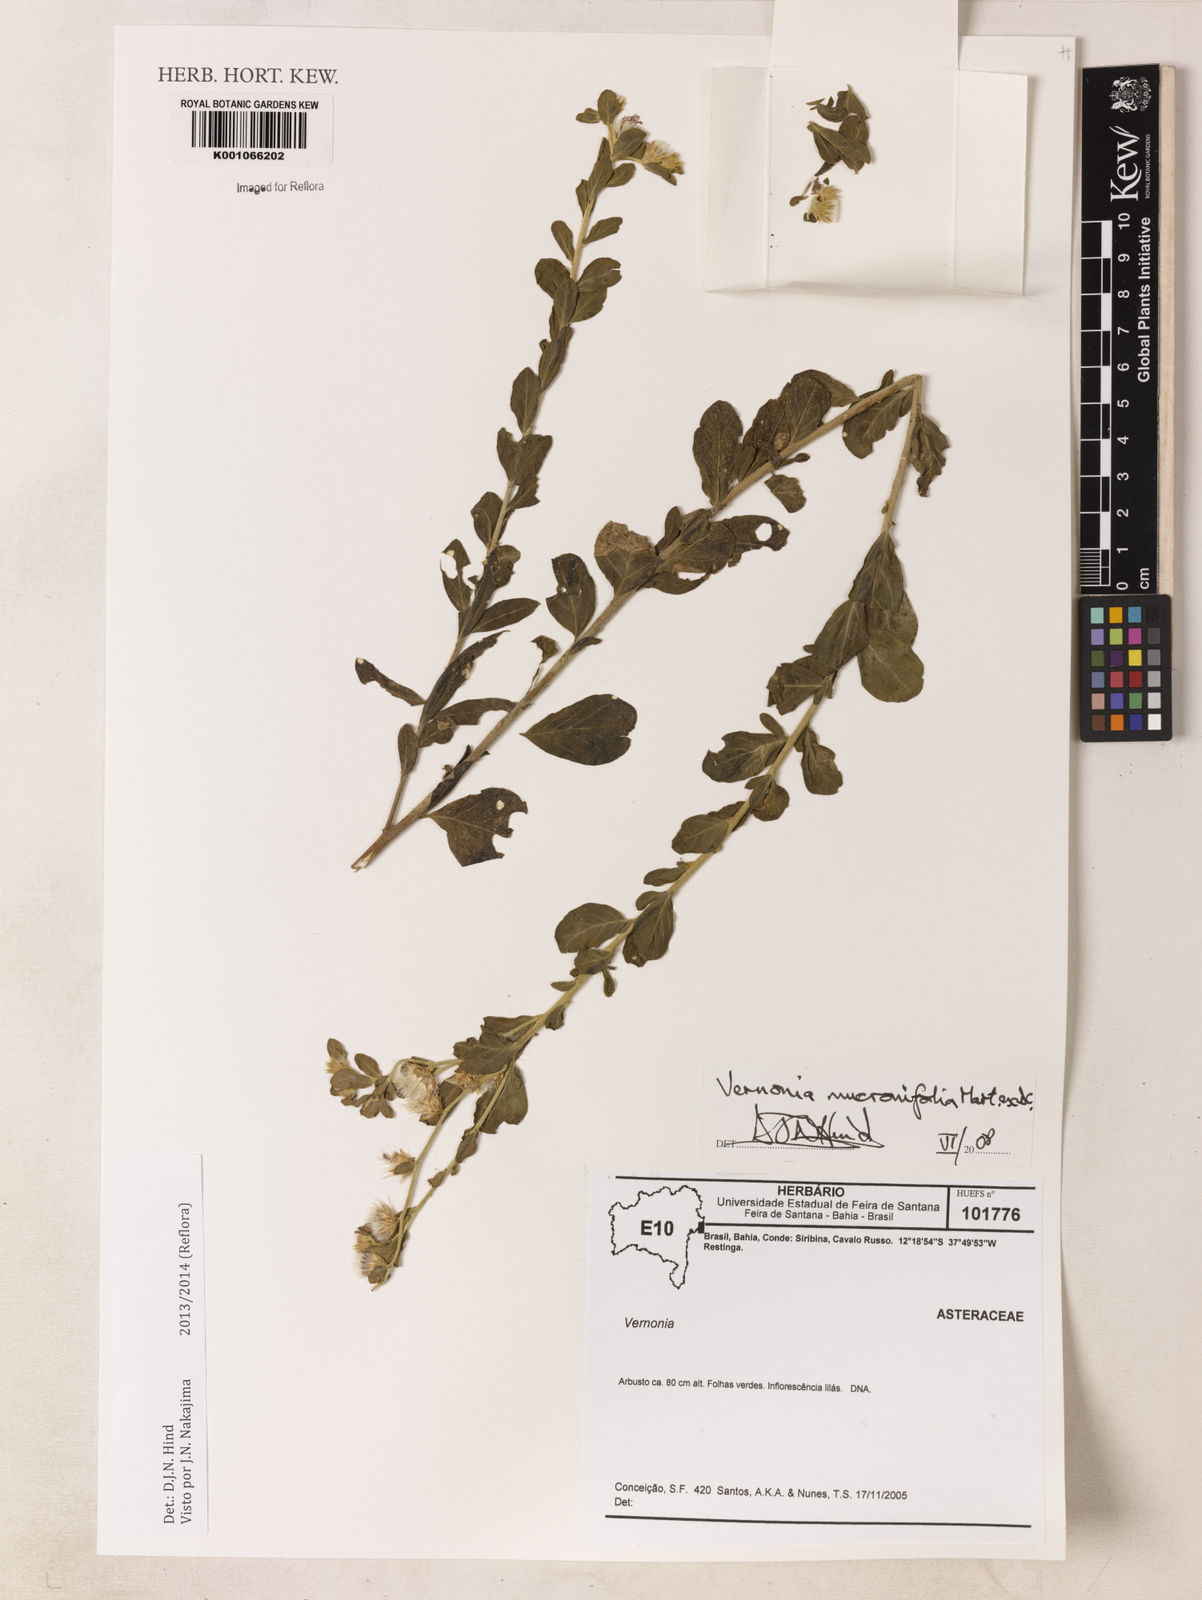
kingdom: Plantae
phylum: Tracheophyta
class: Magnoliopsida
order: Asterales
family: Asteraceae
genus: Lepidaploa
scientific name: Lepidaploa mucronifolia
